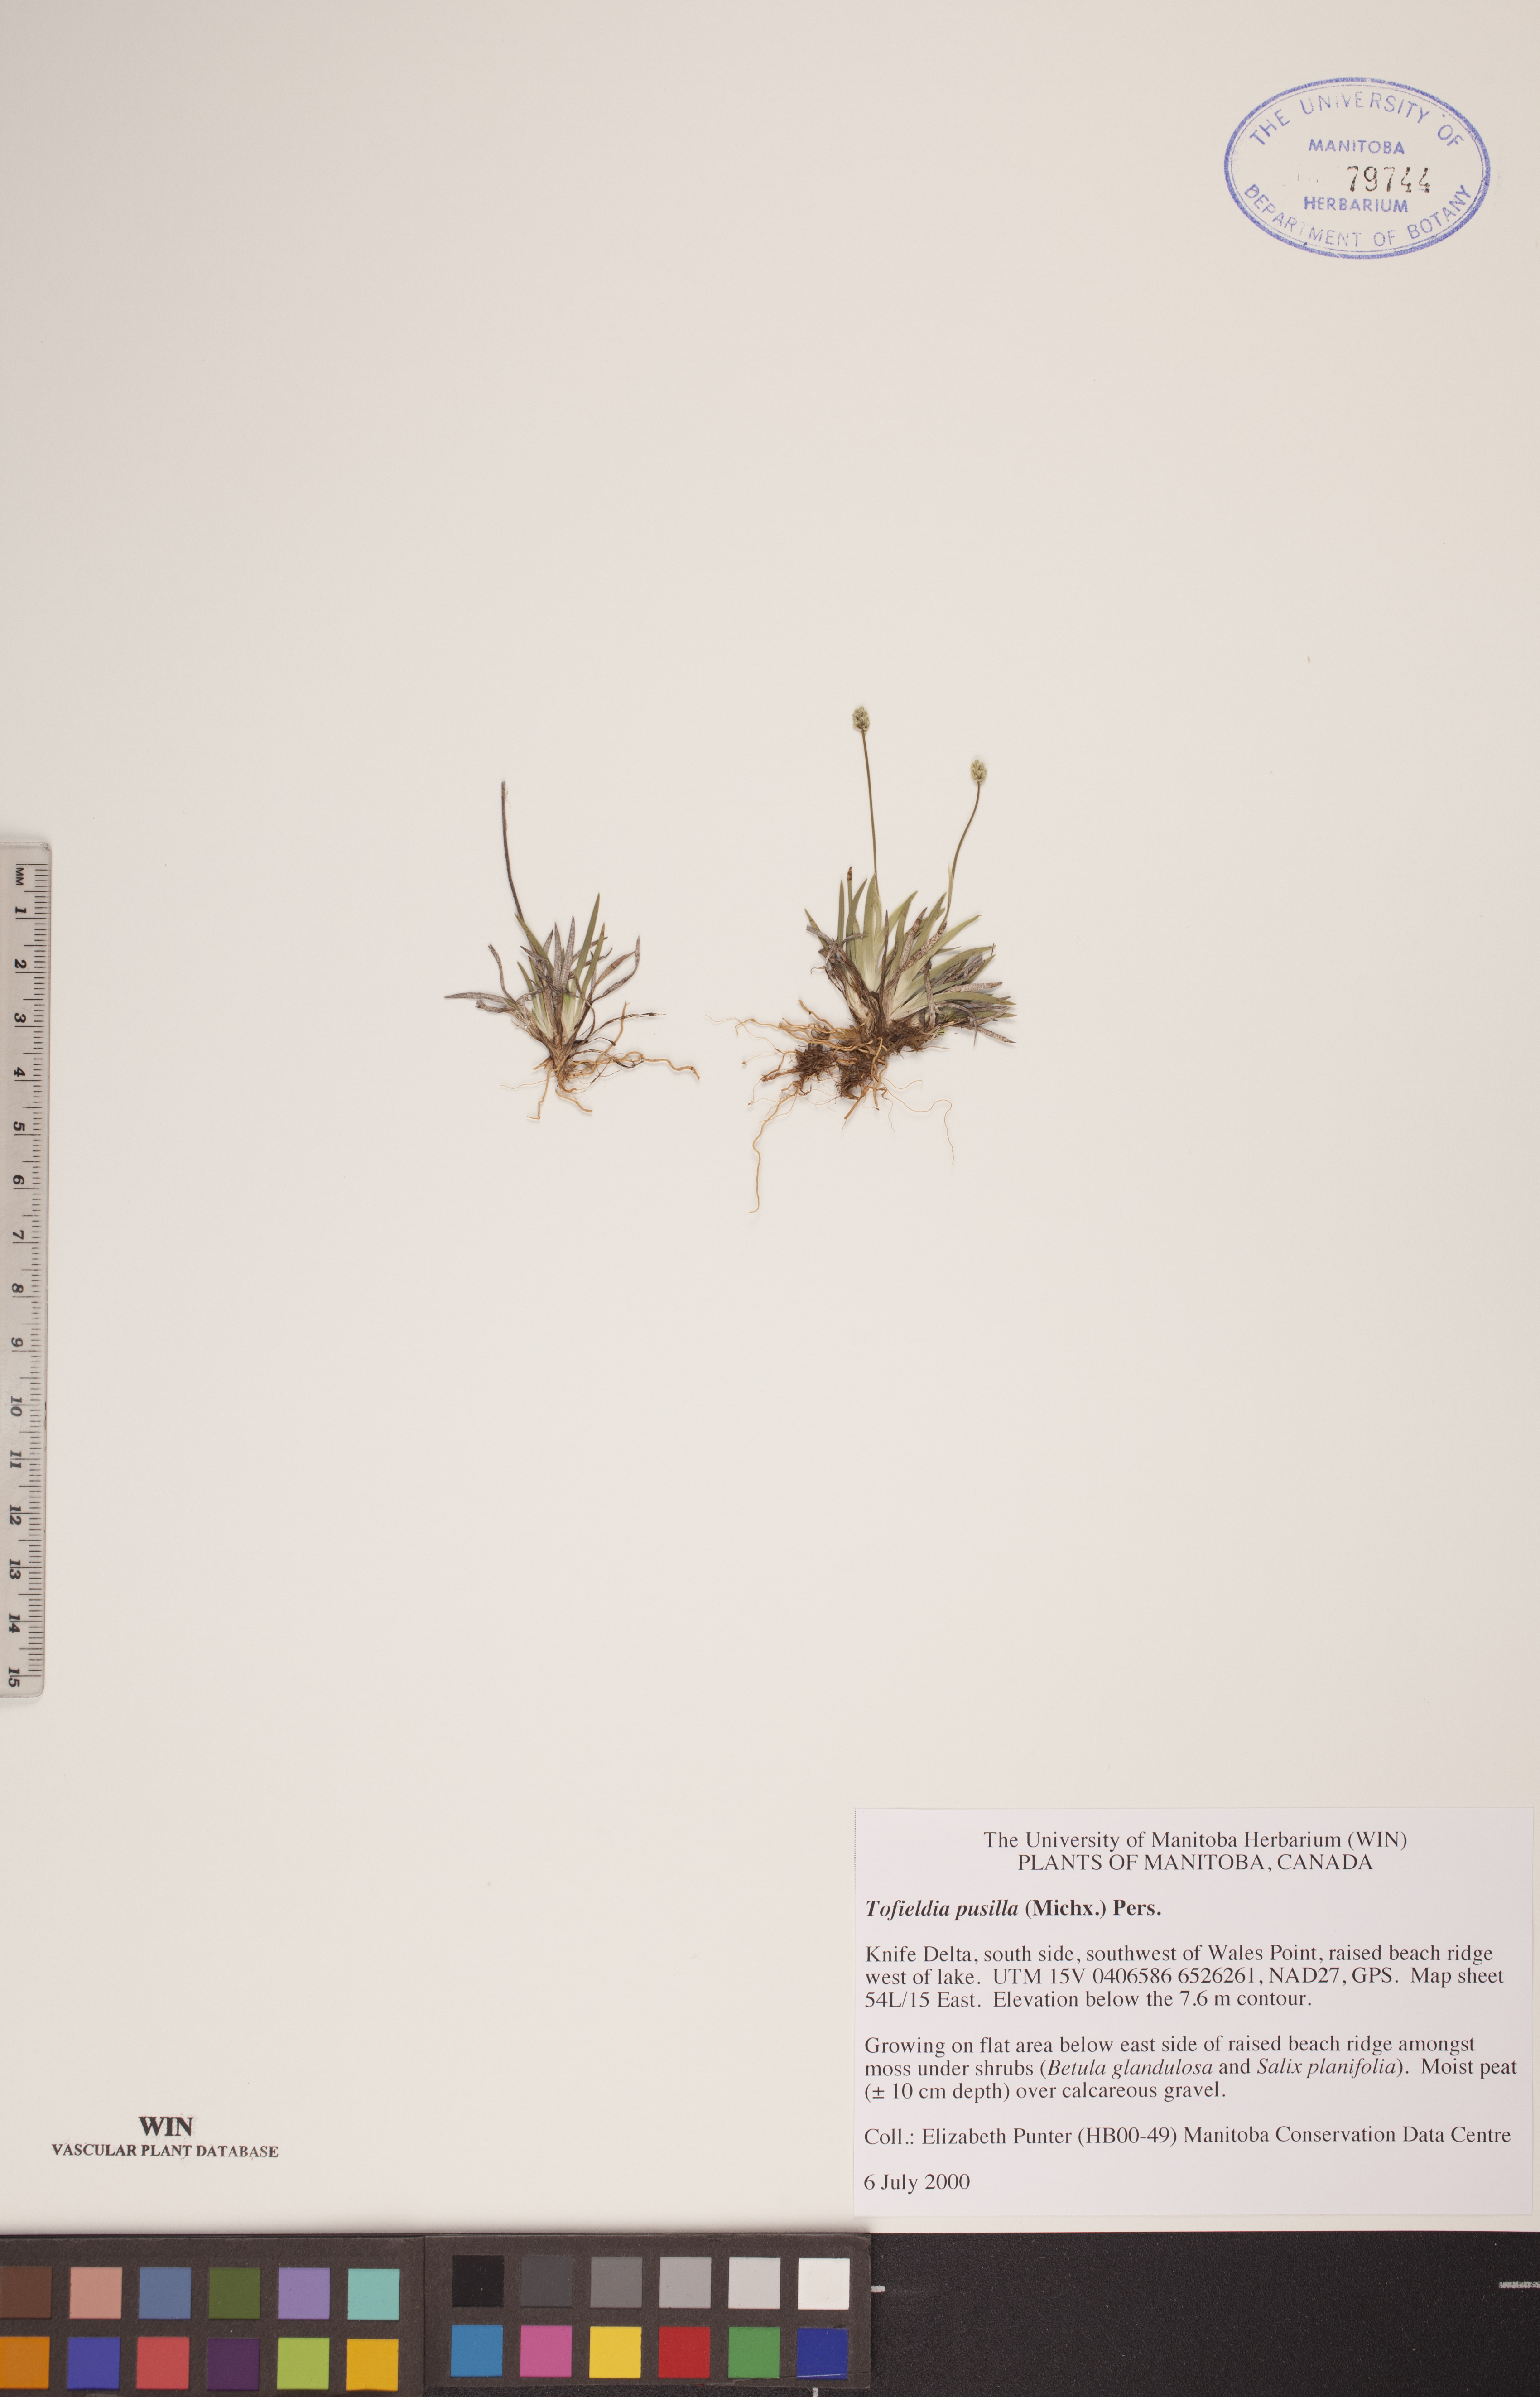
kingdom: Plantae
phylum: Tracheophyta
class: Liliopsida
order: Alismatales
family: Tofieldiaceae
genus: Tofieldia
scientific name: Tofieldia pusilla
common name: Scottish false asphodel
